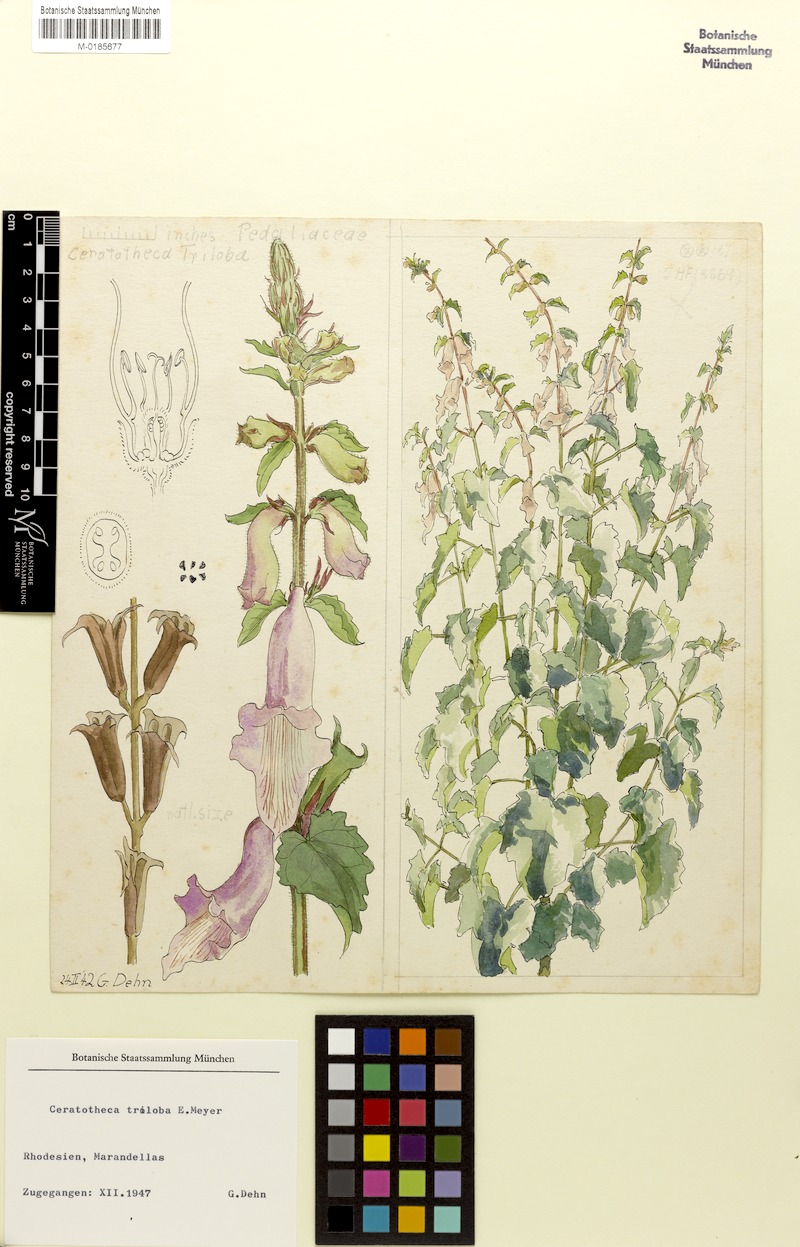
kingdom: Plantae
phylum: Tracheophyta
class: Magnoliopsida
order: Lamiales
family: Pedaliaceae
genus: Sesamum
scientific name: Sesamum trilobum
